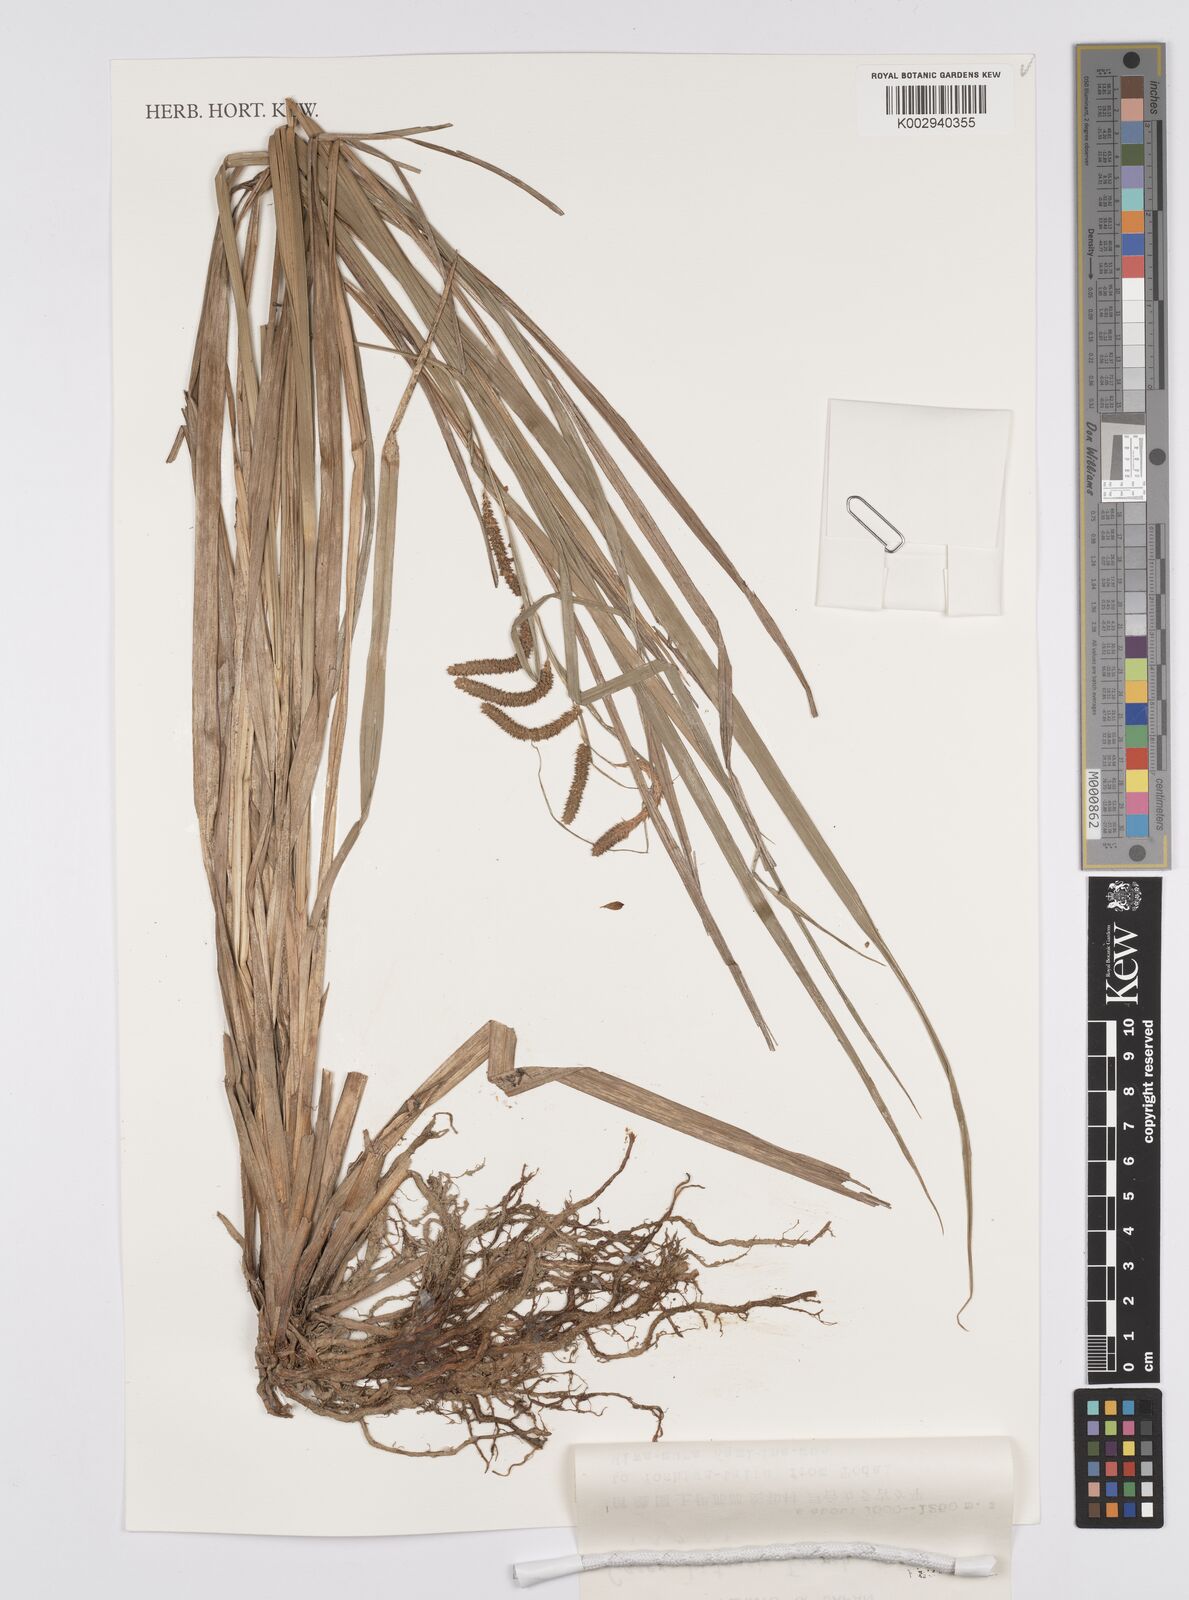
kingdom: Plantae
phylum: Tracheophyta
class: Liliopsida
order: Poales
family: Cyperaceae
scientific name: Cyperaceae
